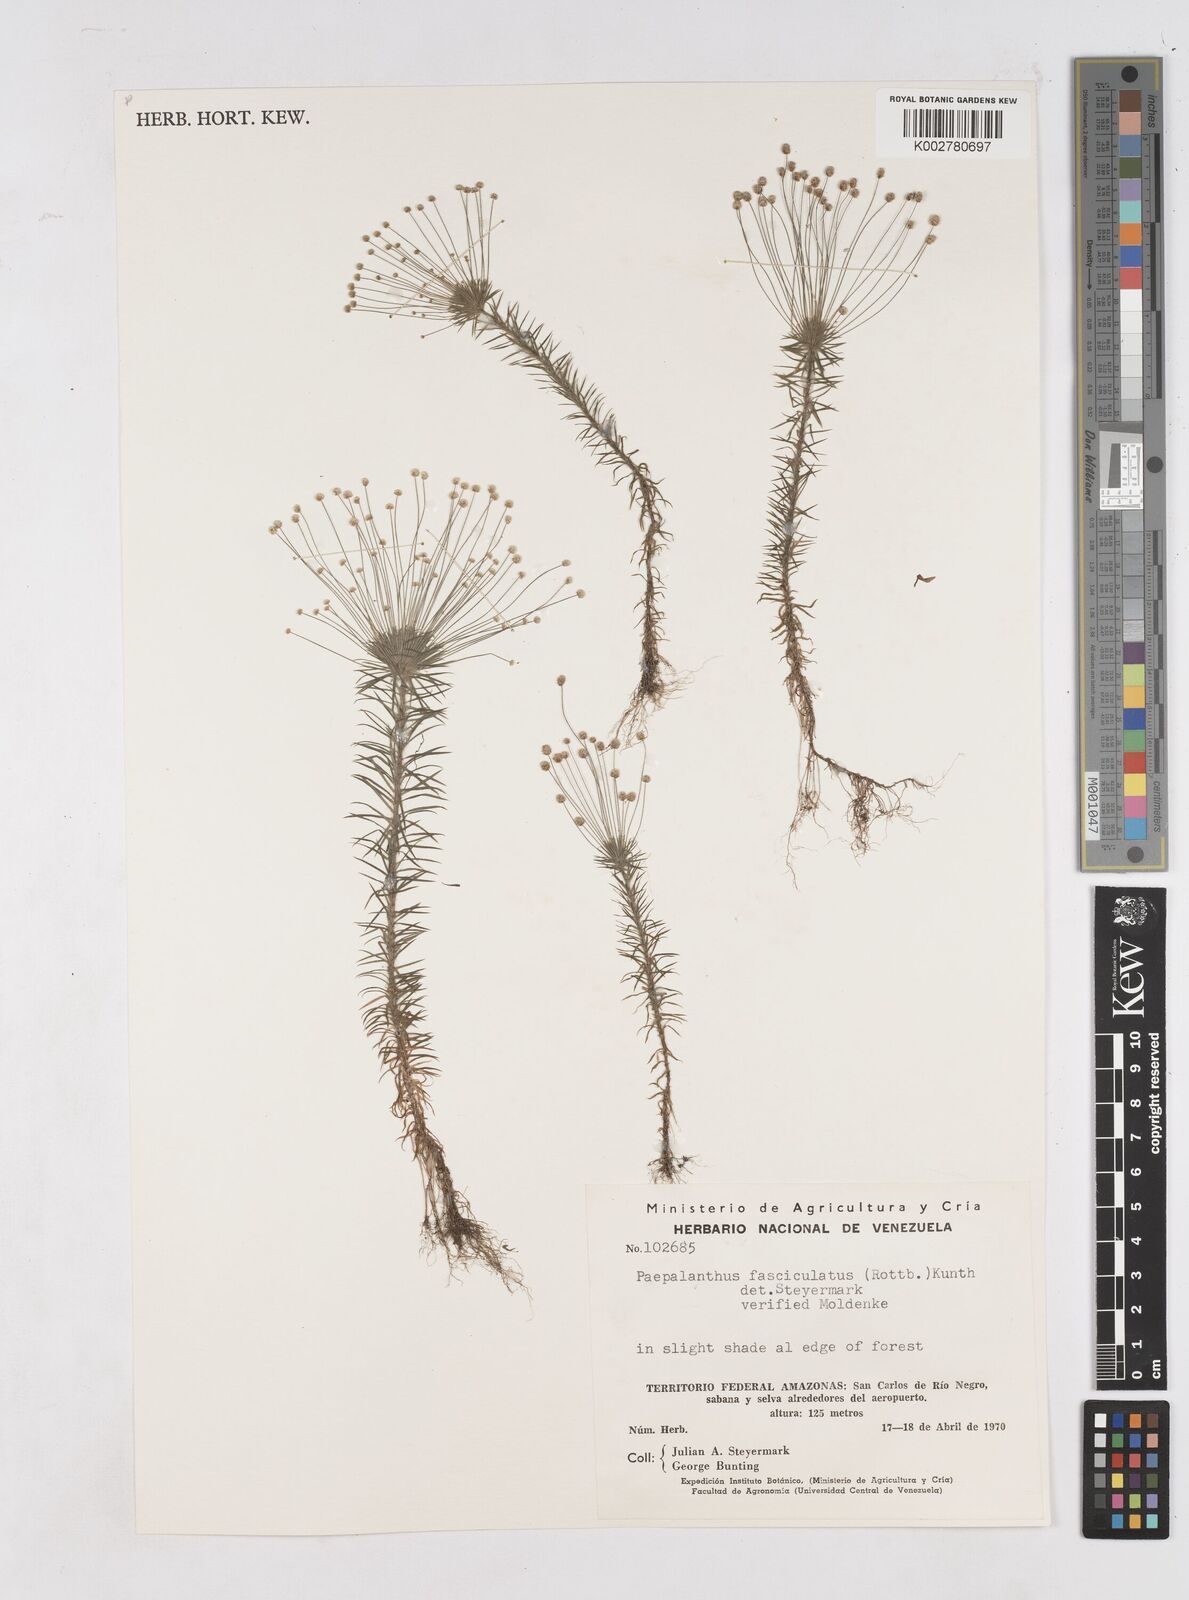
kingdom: Plantae
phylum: Tracheophyta
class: Liliopsida
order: Poales
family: Eriocaulaceae
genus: Paepalanthus
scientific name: Paepalanthus fasciculatus
